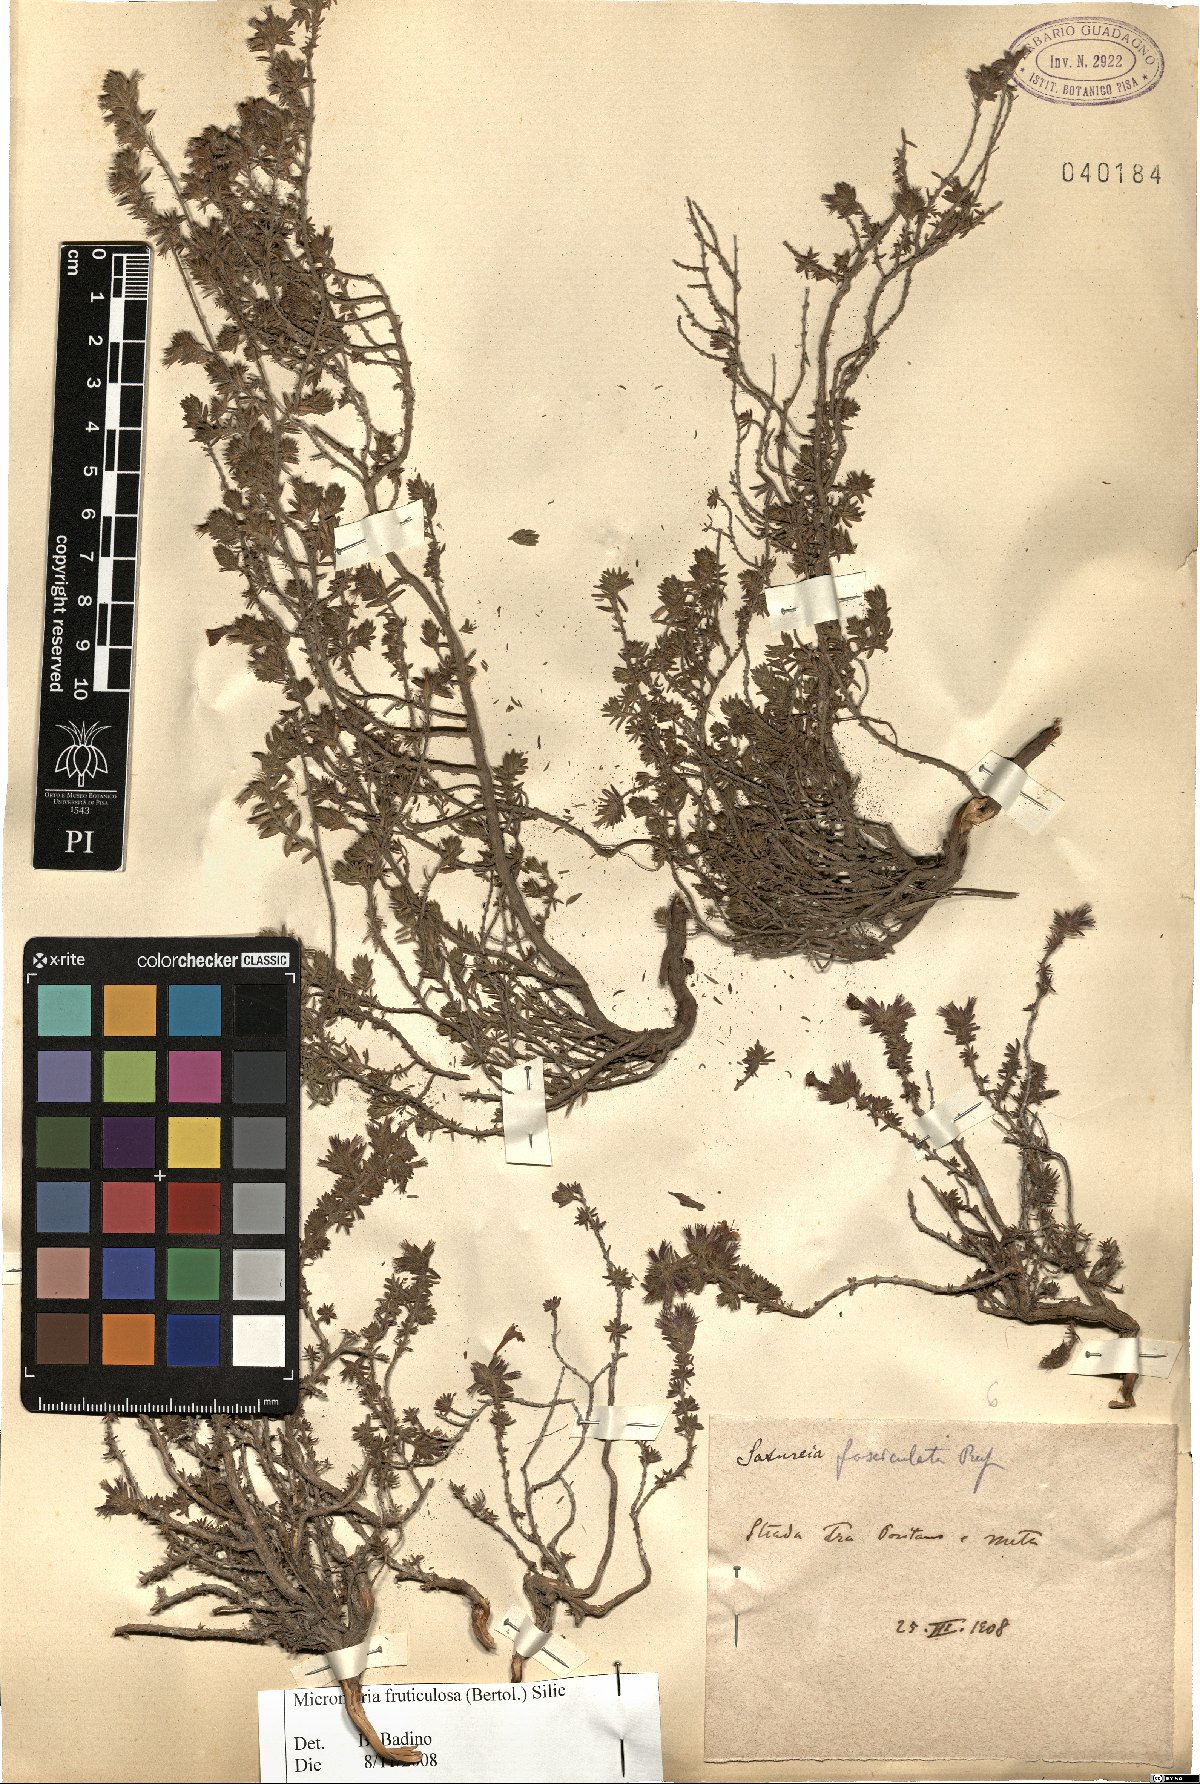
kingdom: Plantae
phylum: Tracheophyta
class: Magnoliopsida
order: Lamiales
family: Lamiaceae
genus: Micromeria
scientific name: Micromeria graeca
